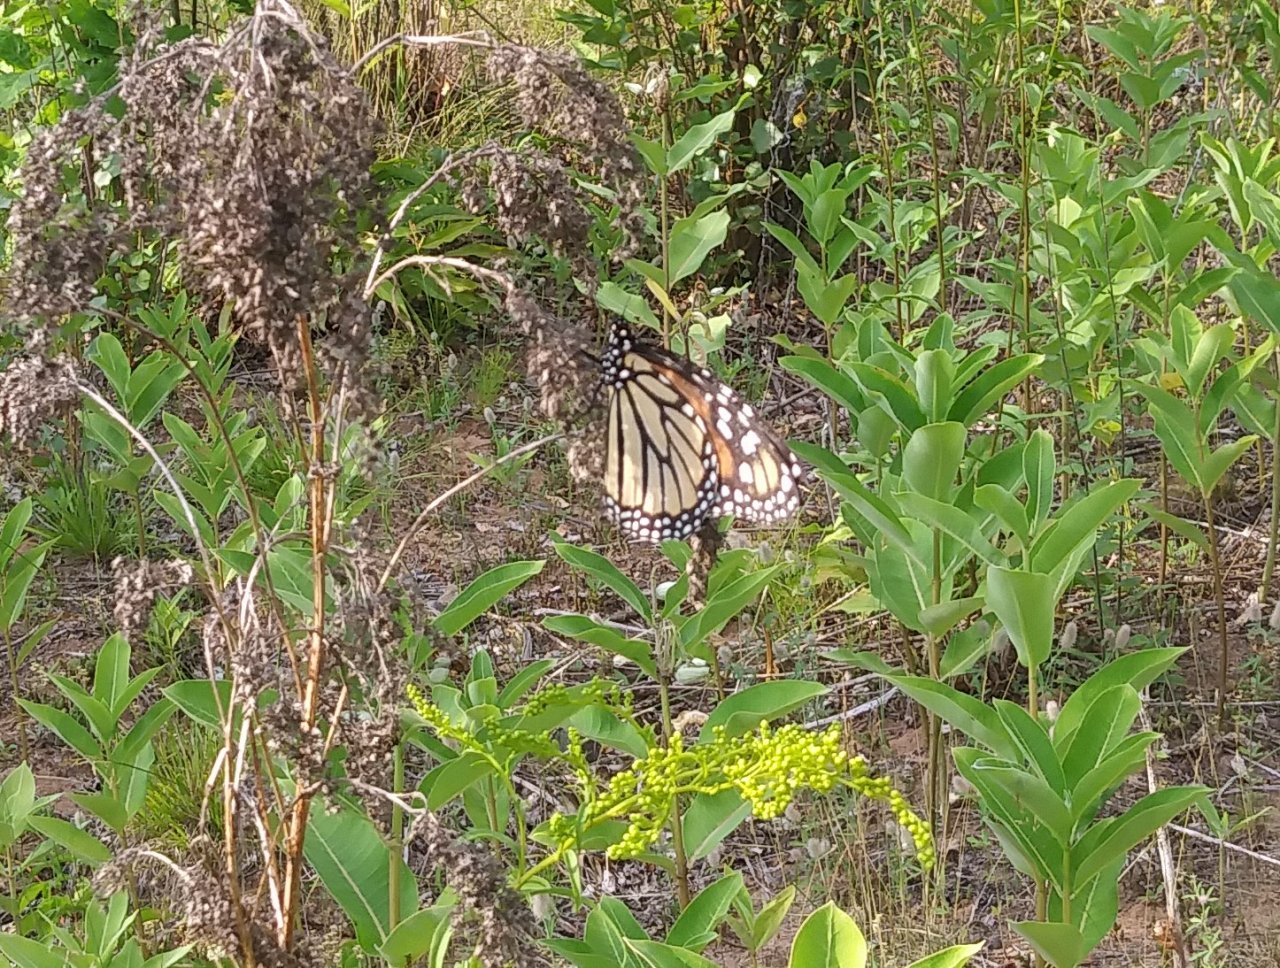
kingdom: Animalia
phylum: Arthropoda
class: Insecta
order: Lepidoptera
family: Nymphalidae
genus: Danaus
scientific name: Danaus plexippus
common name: Monarch
